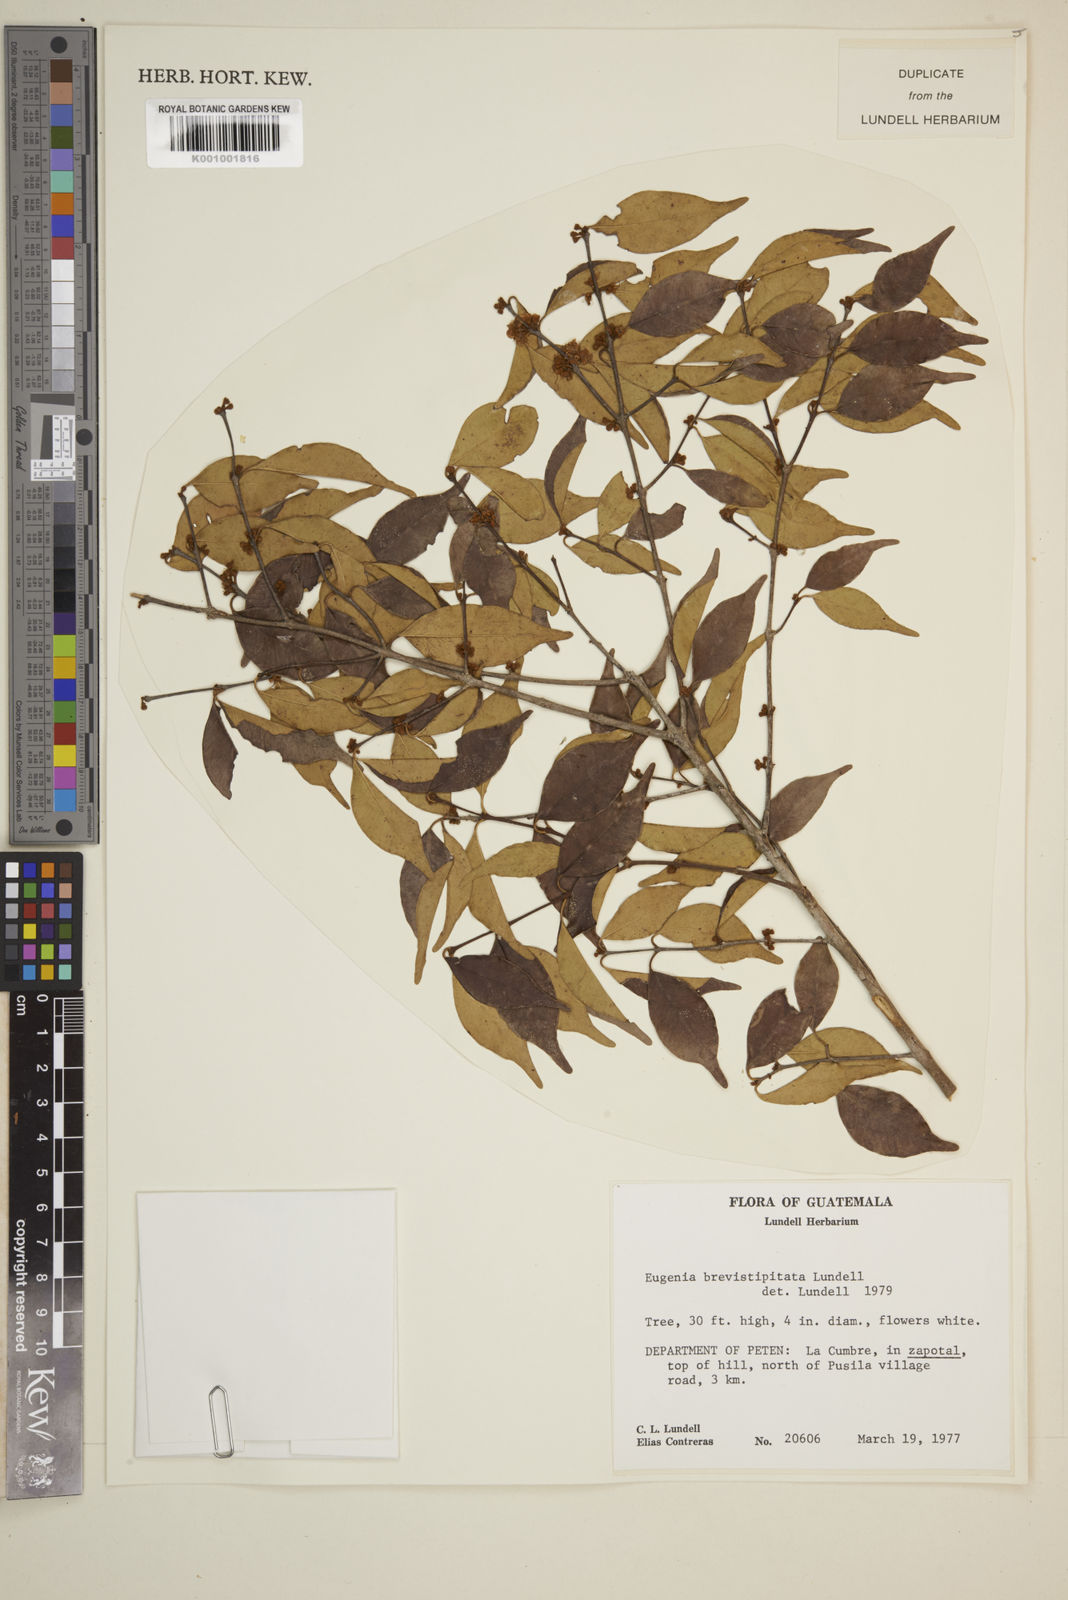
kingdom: Plantae
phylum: Tracheophyta
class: Magnoliopsida
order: Myrtales
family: Myrtaceae
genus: Eugenia
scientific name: Eugenia bumelioides
